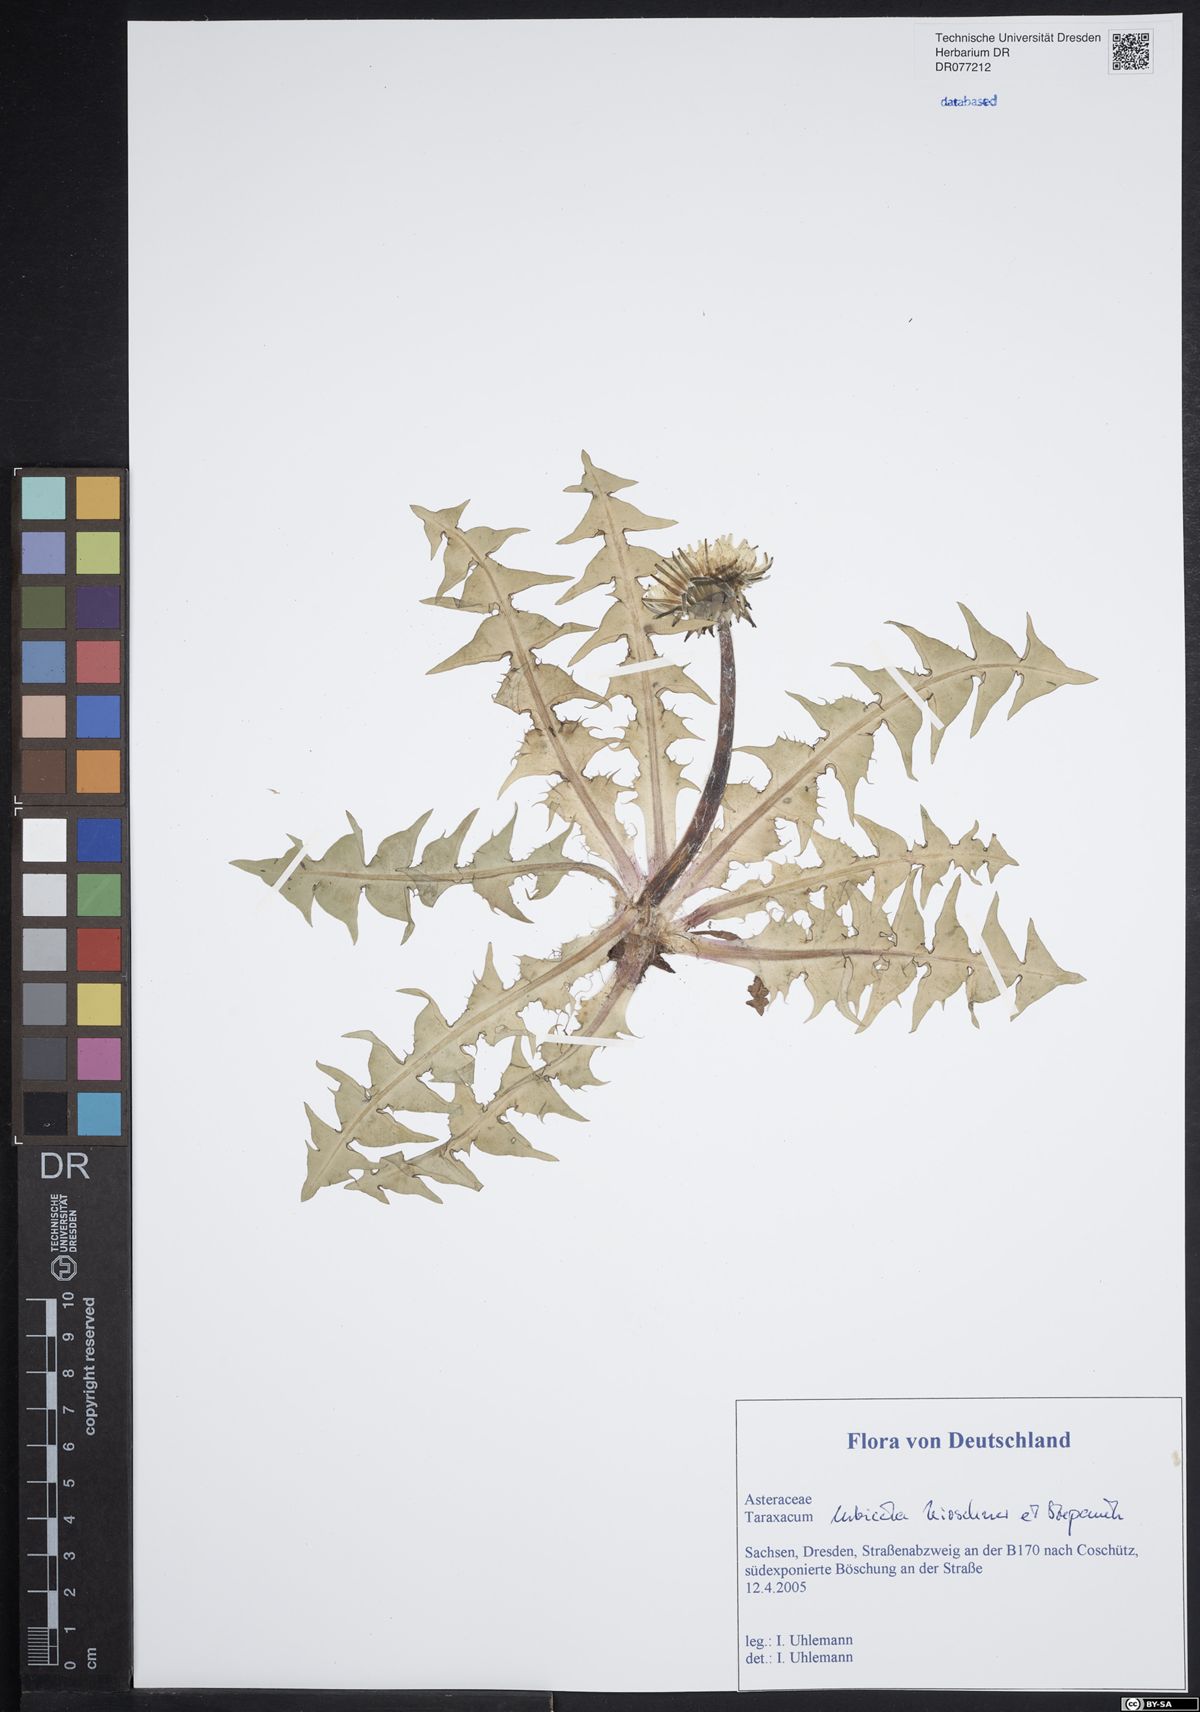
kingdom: Plantae
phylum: Tracheophyta
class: Magnoliopsida
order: Asterales
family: Asteraceae
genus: Taraxacum
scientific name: Taraxacum urbicola
